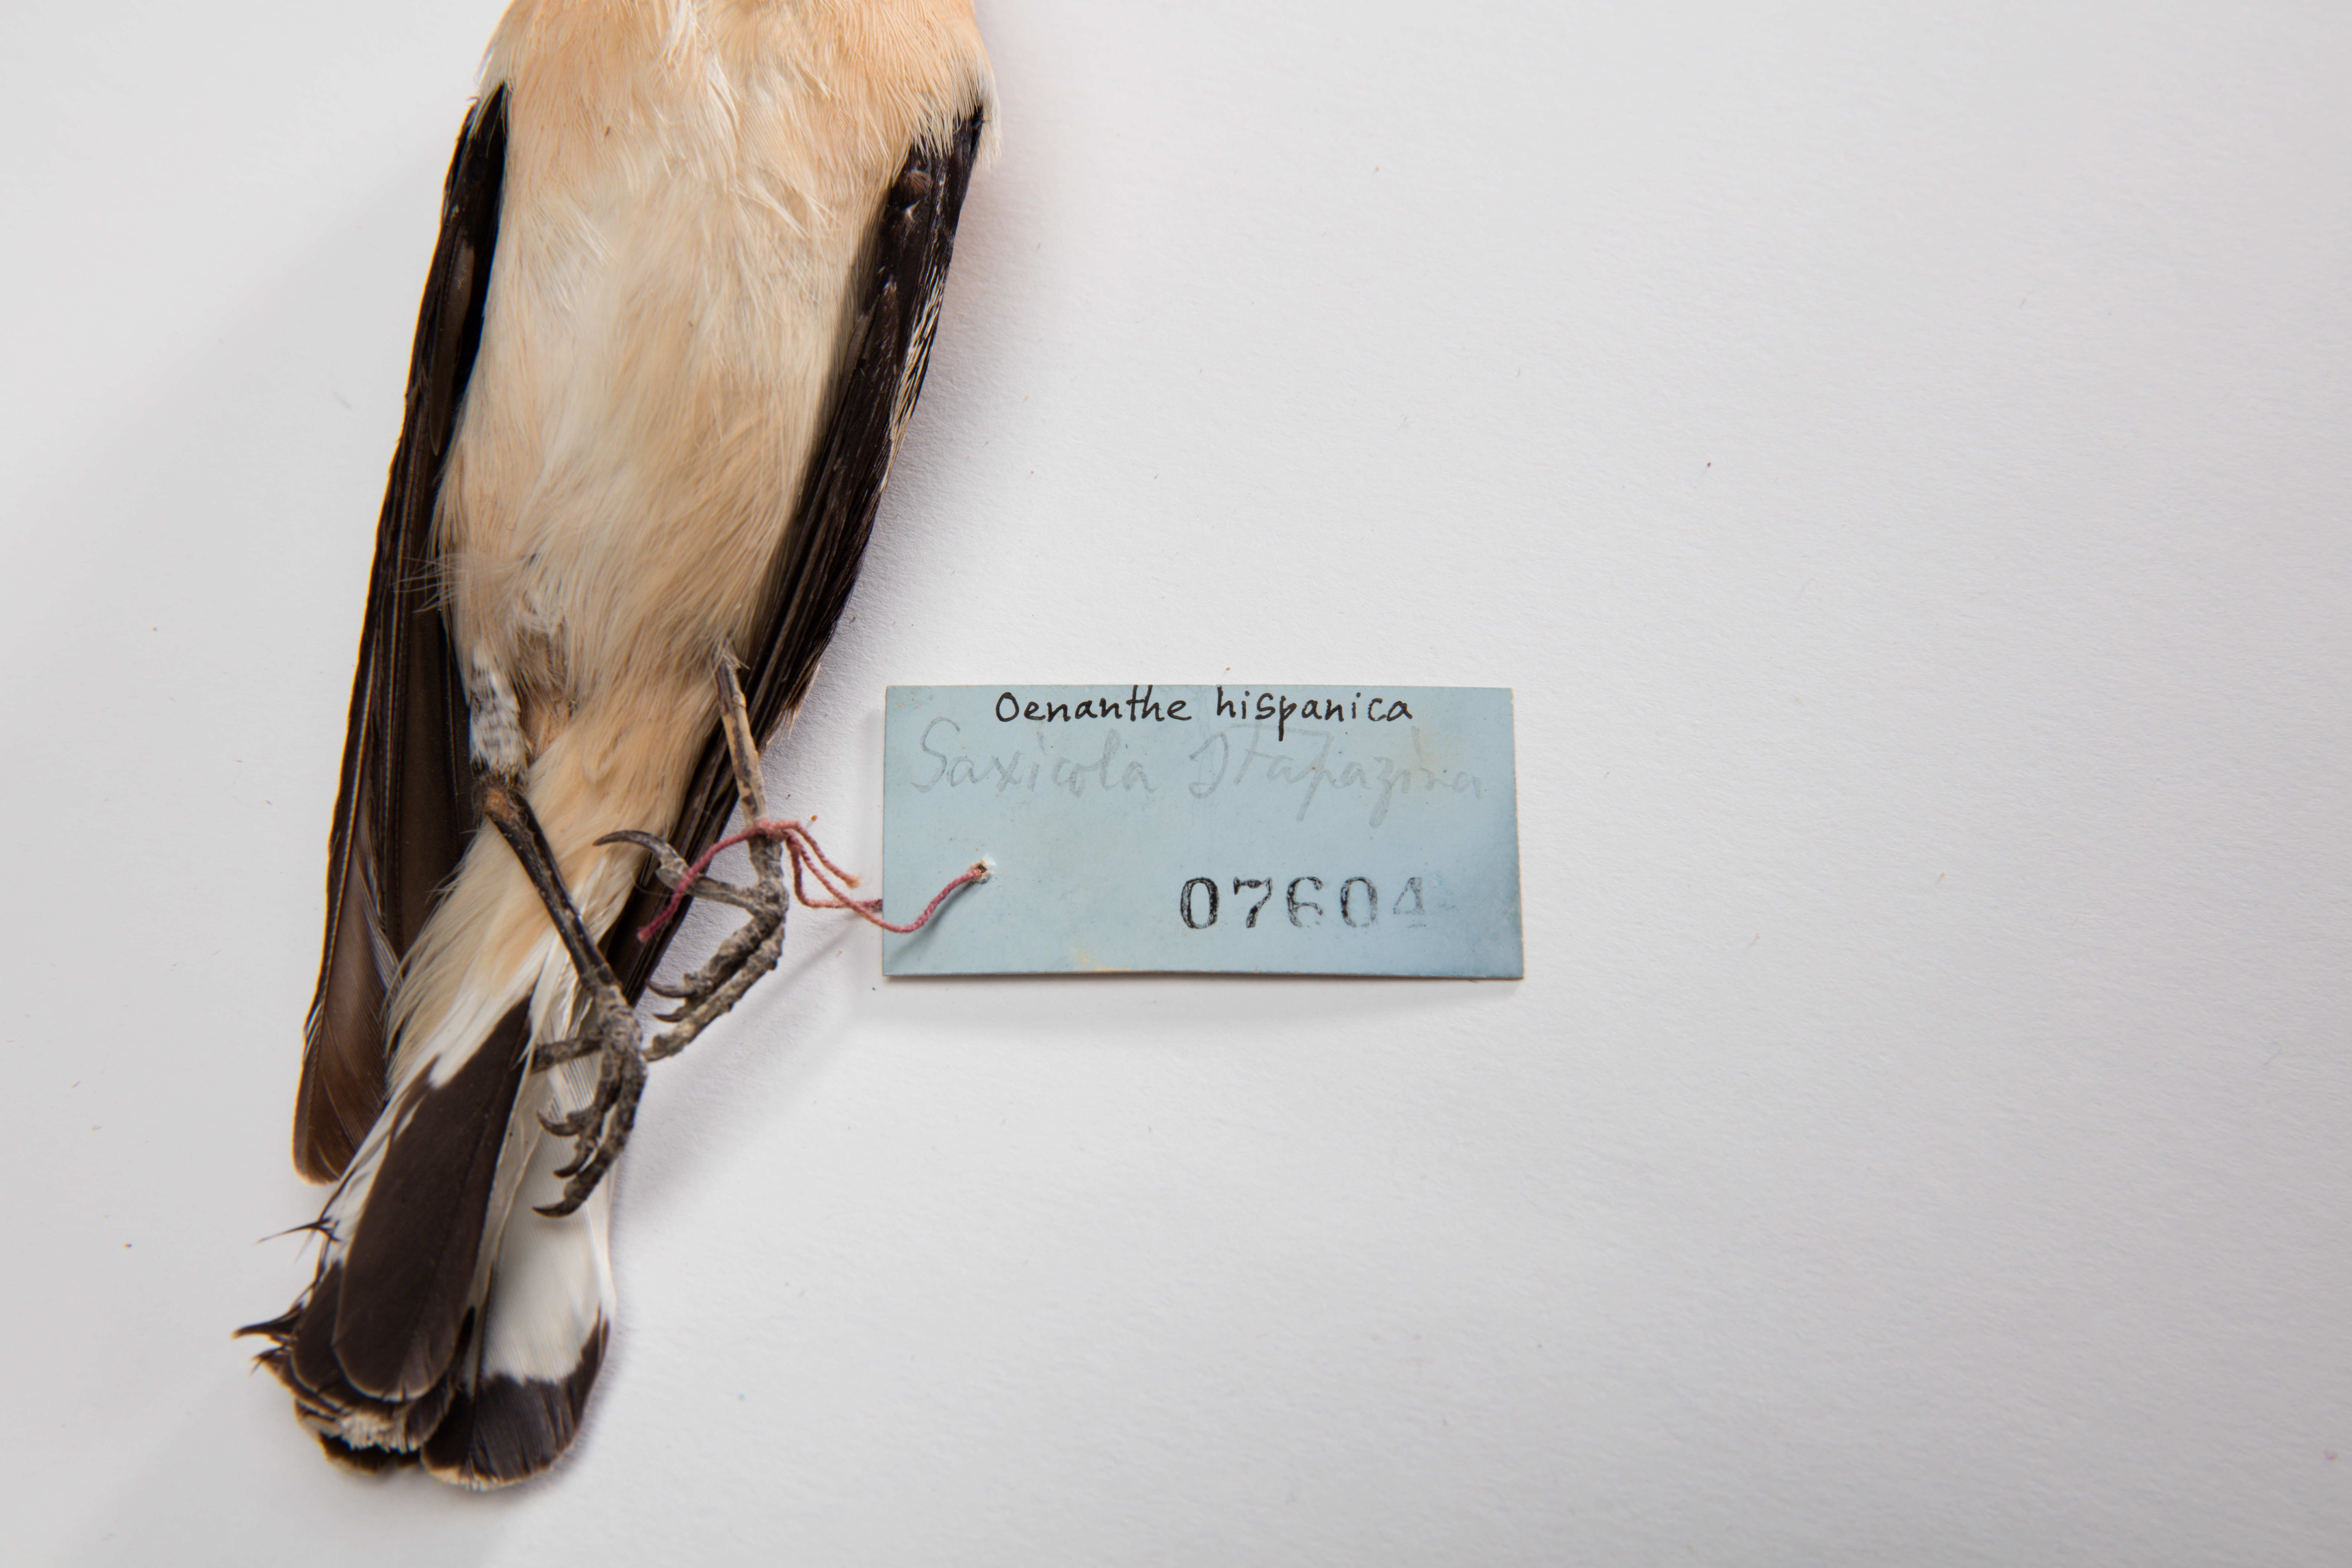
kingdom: Animalia
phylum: Chordata
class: Aves
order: Passeriformes
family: Muscicapidae
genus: Oenanthe
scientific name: Oenanthe hispanica
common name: Black-eared wheatear
